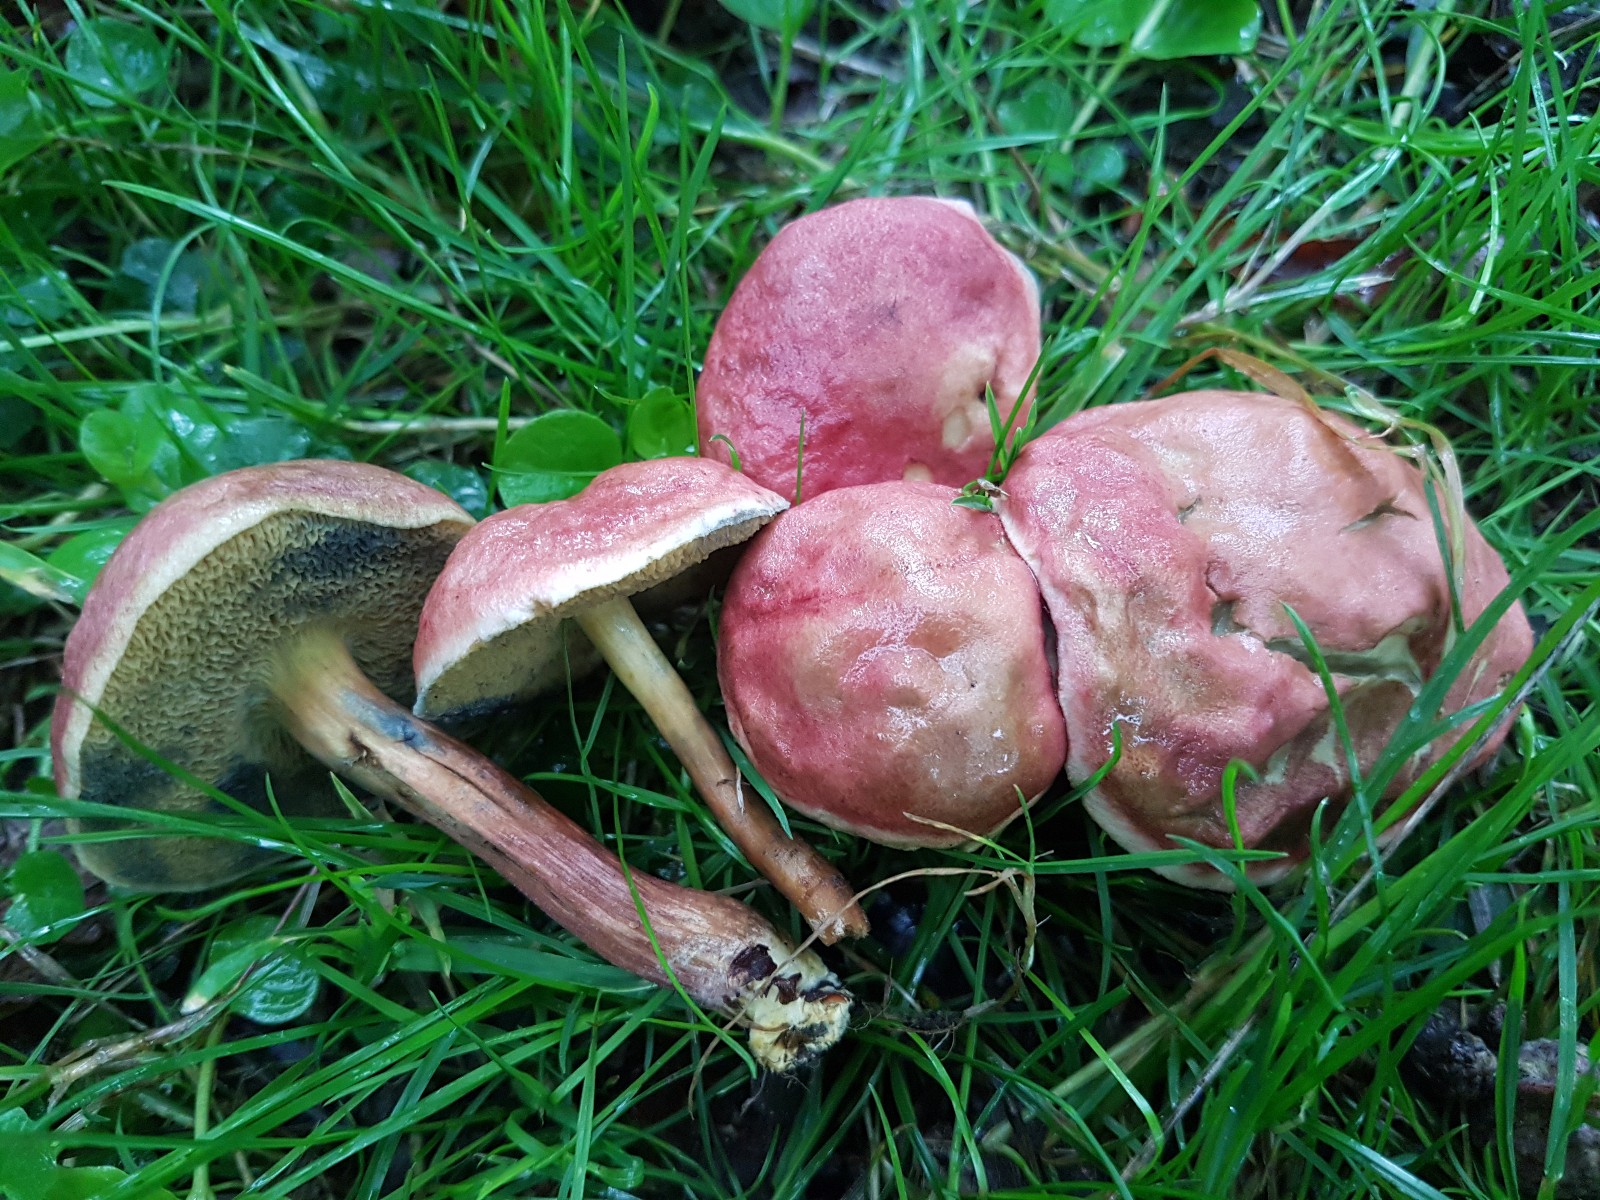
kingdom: Fungi
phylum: Basidiomycota
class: Agaricomycetes
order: Boletales
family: Boletaceae
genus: Hortiboletus
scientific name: Hortiboletus rubellus
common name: blodrød rørhat
